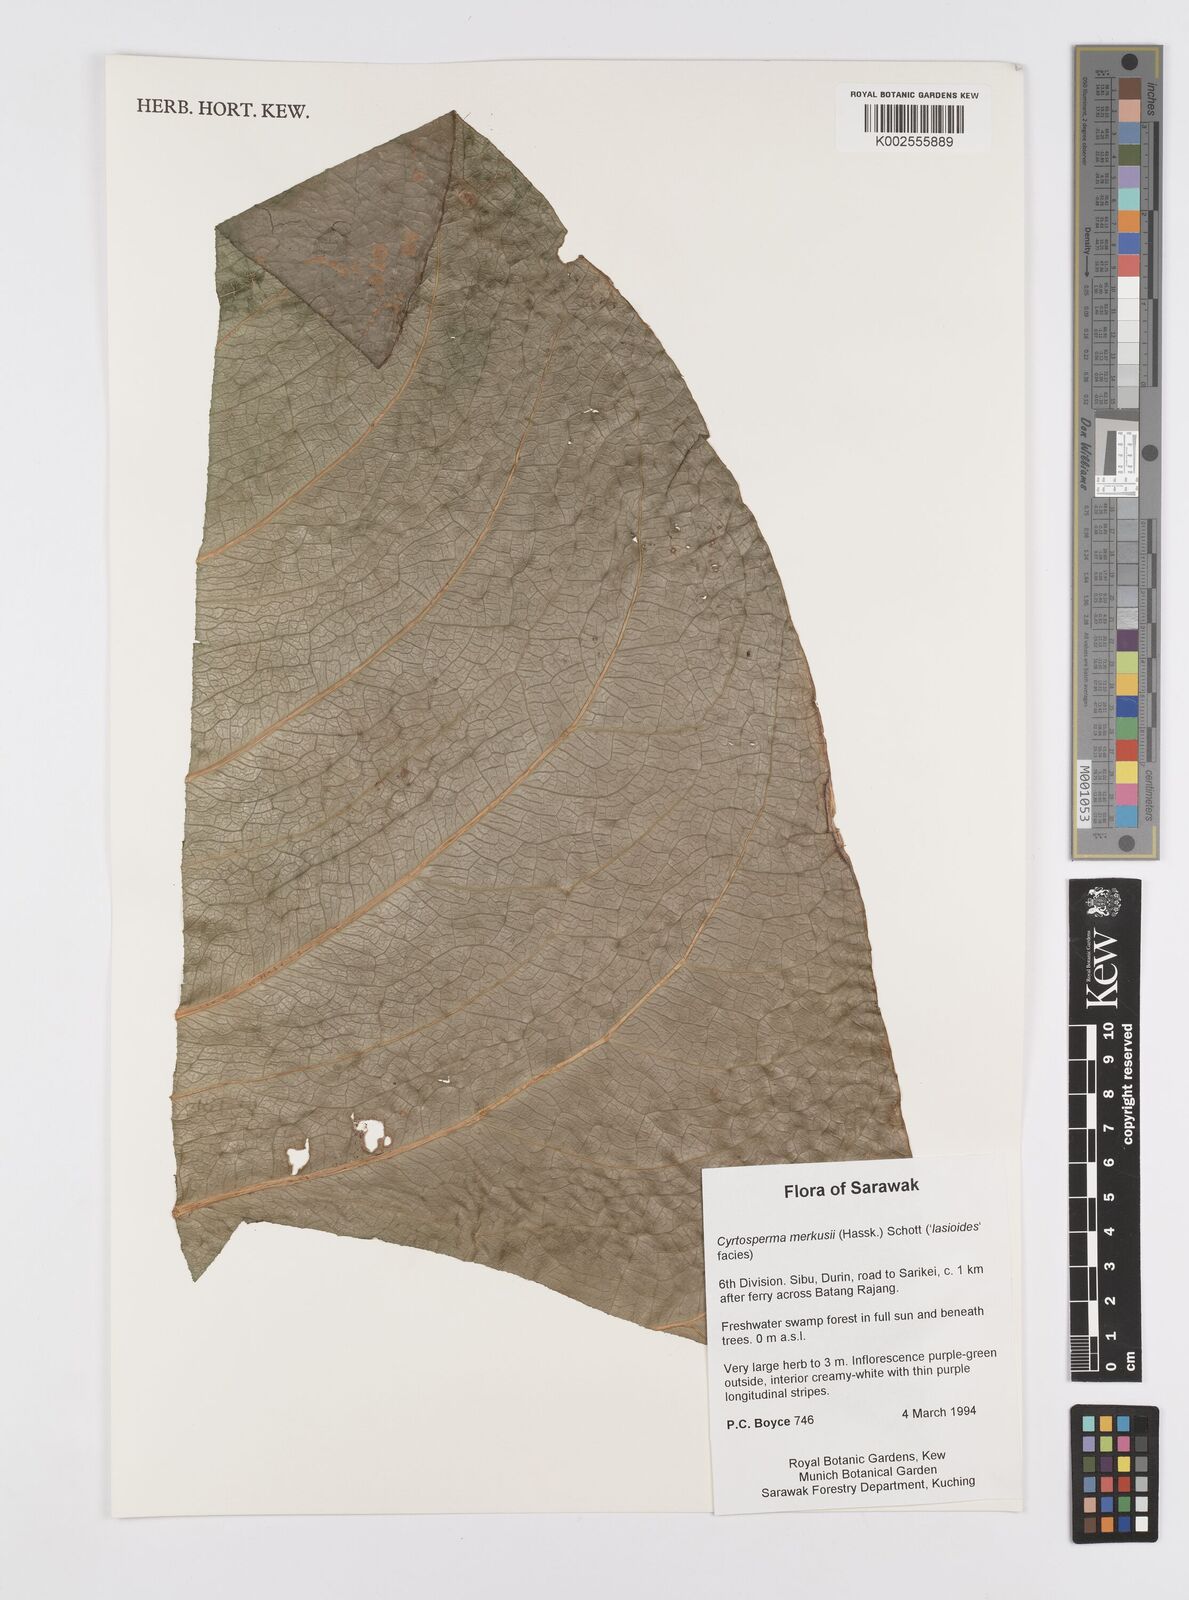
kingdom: Plantae
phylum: Tracheophyta
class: Liliopsida
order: Alismatales
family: Araceae
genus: Cyrtosperma
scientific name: Cyrtosperma merkusii
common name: Giant swamp-taro
